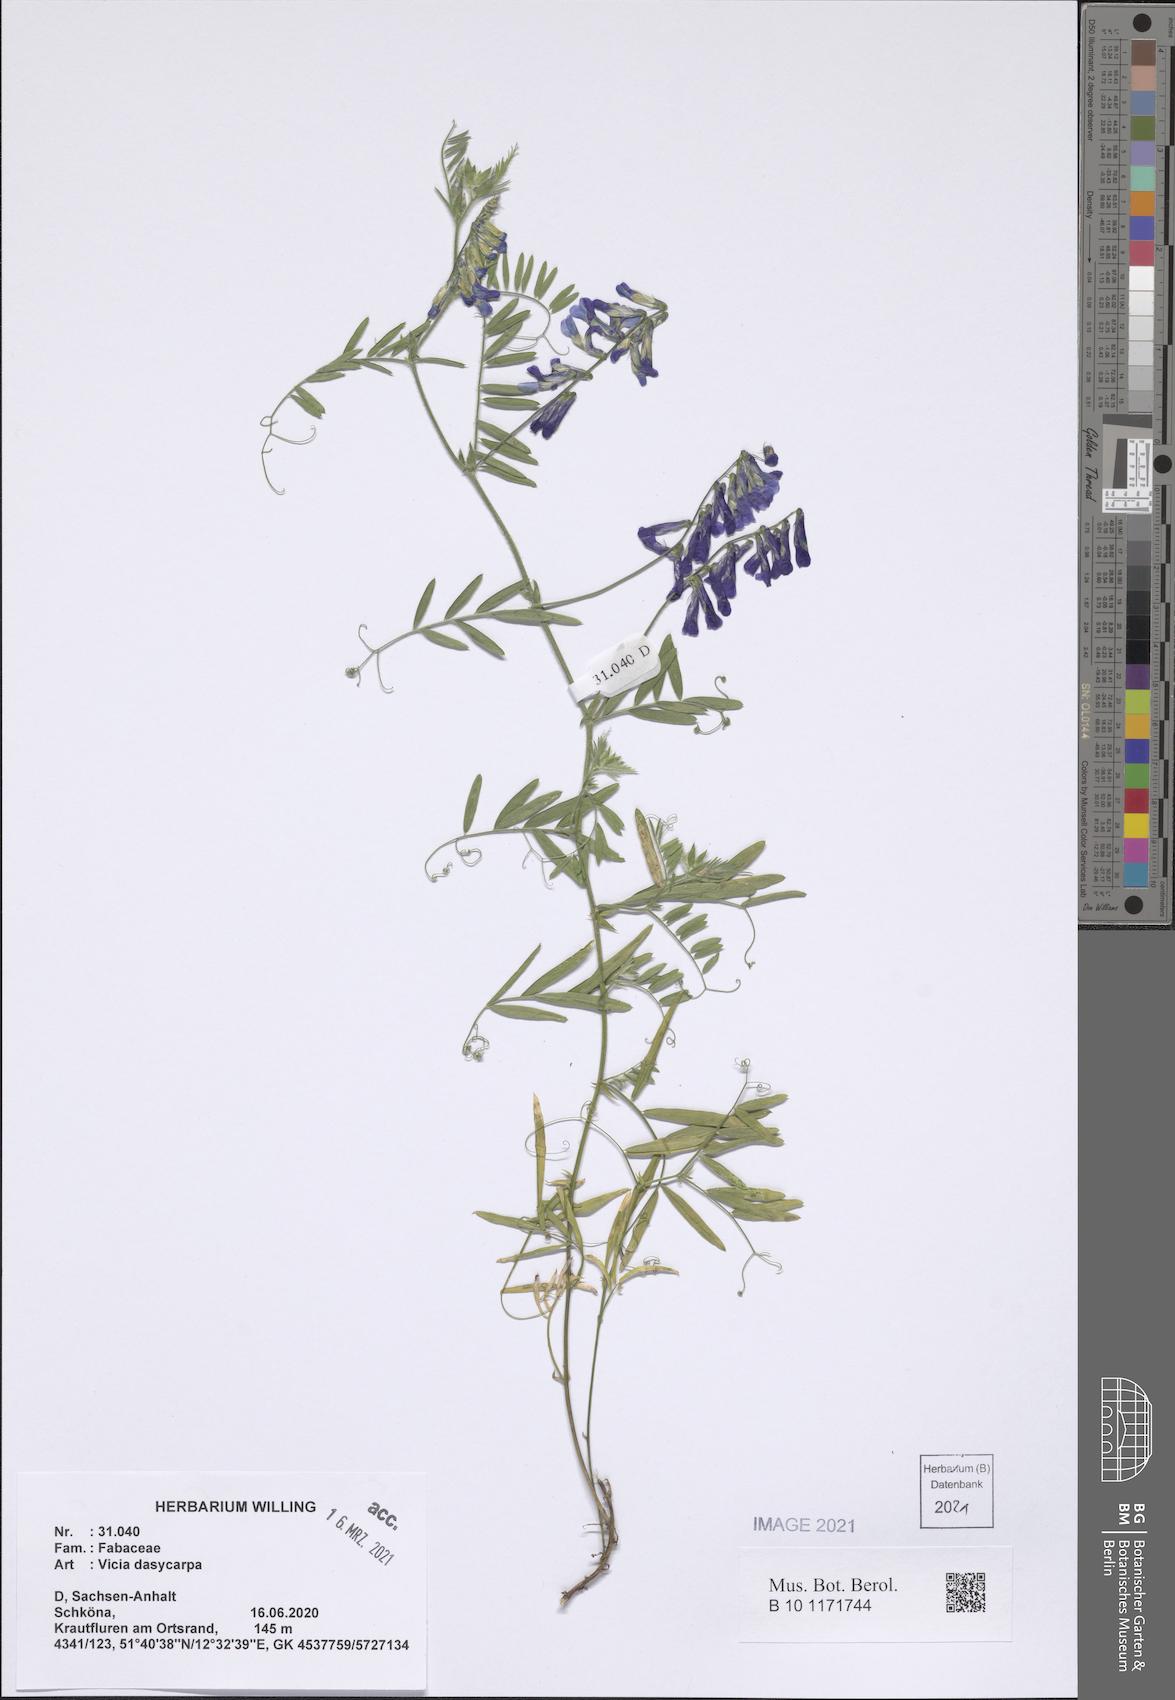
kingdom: Plantae
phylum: Tracheophyta
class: Magnoliopsida
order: Fabales
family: Fabaceae
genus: Vicia
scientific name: Vicia villosa
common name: Fodder vetch
